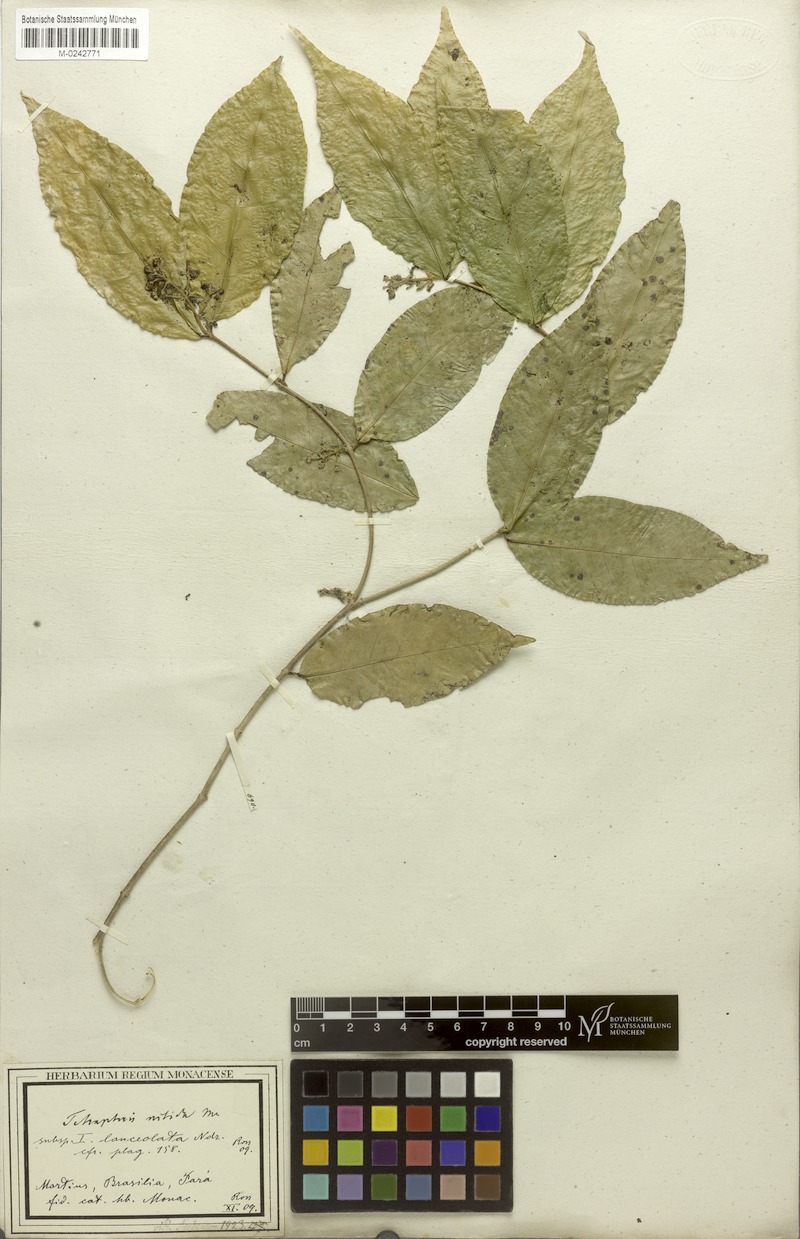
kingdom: Plantae
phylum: Tracheophyta
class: Magnoliopsida
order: Malpighiales
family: Malpighiaceae
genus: Tetrapterys
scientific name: Tetrapterys nitida
